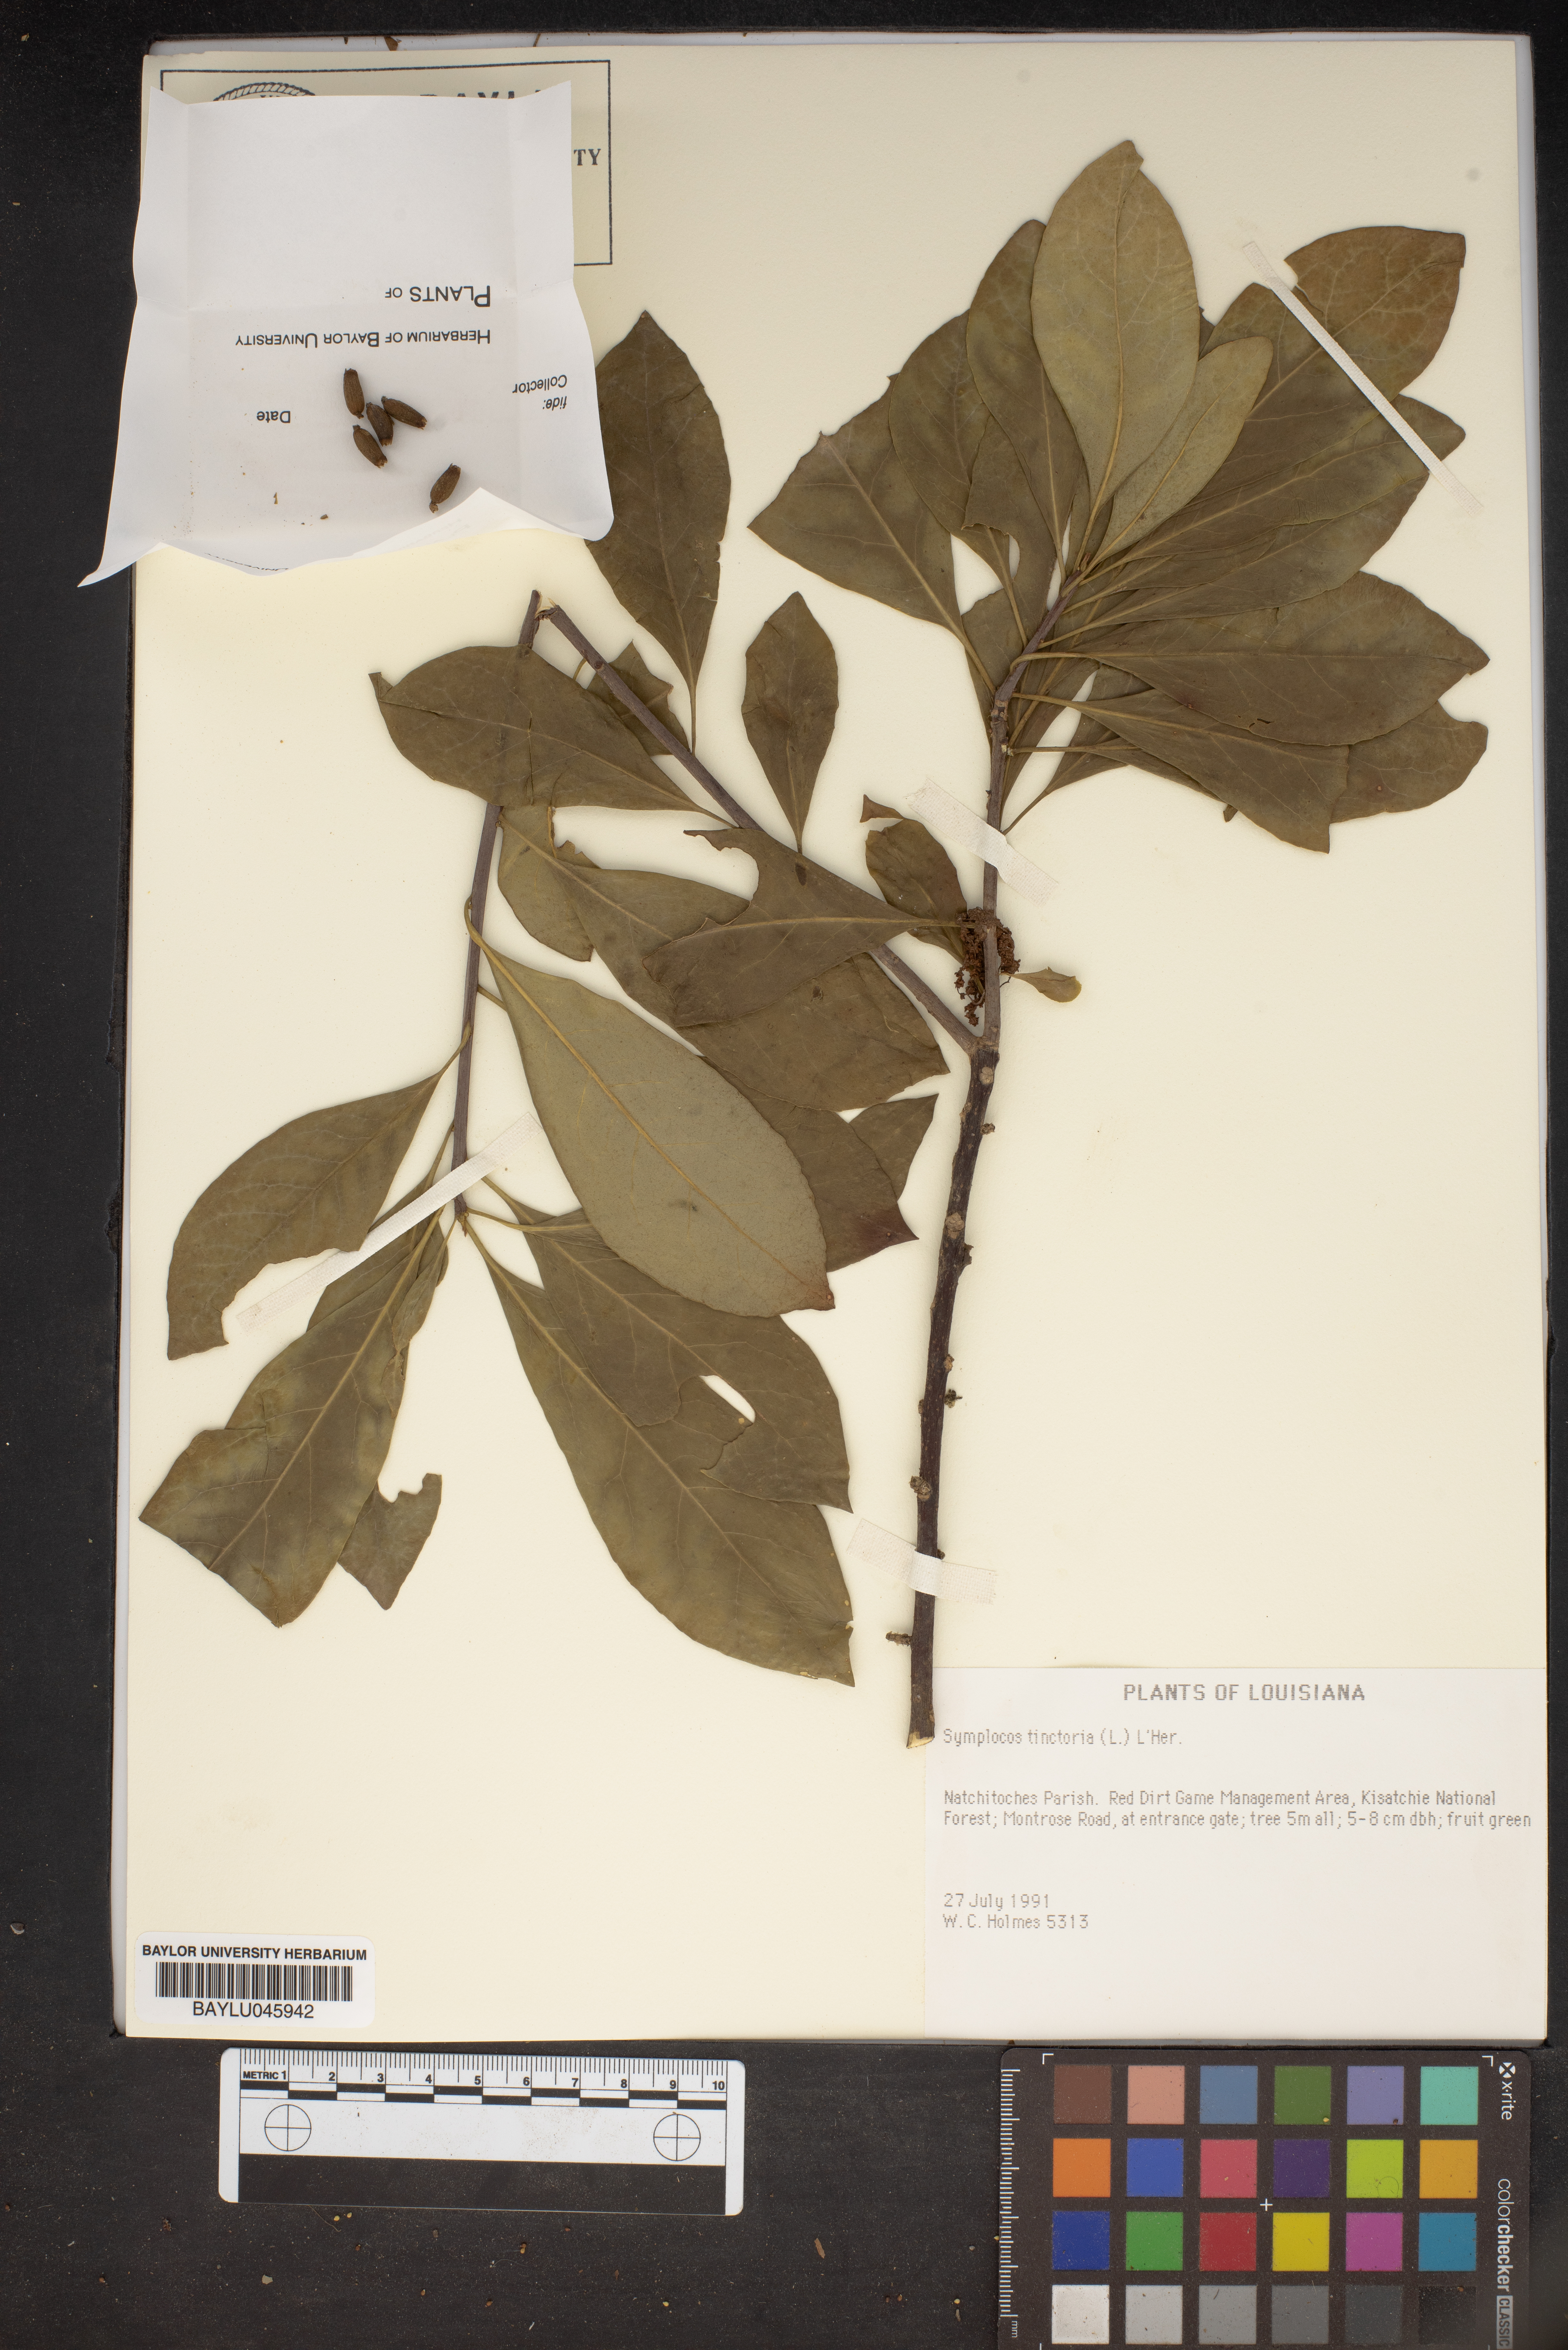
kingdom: Plantae
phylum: Tracheophyta
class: Magnoliopsida
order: Ericales
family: Symplocaceae
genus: Symplocos
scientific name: Symplocos tinctoria
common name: Horse-sugar
